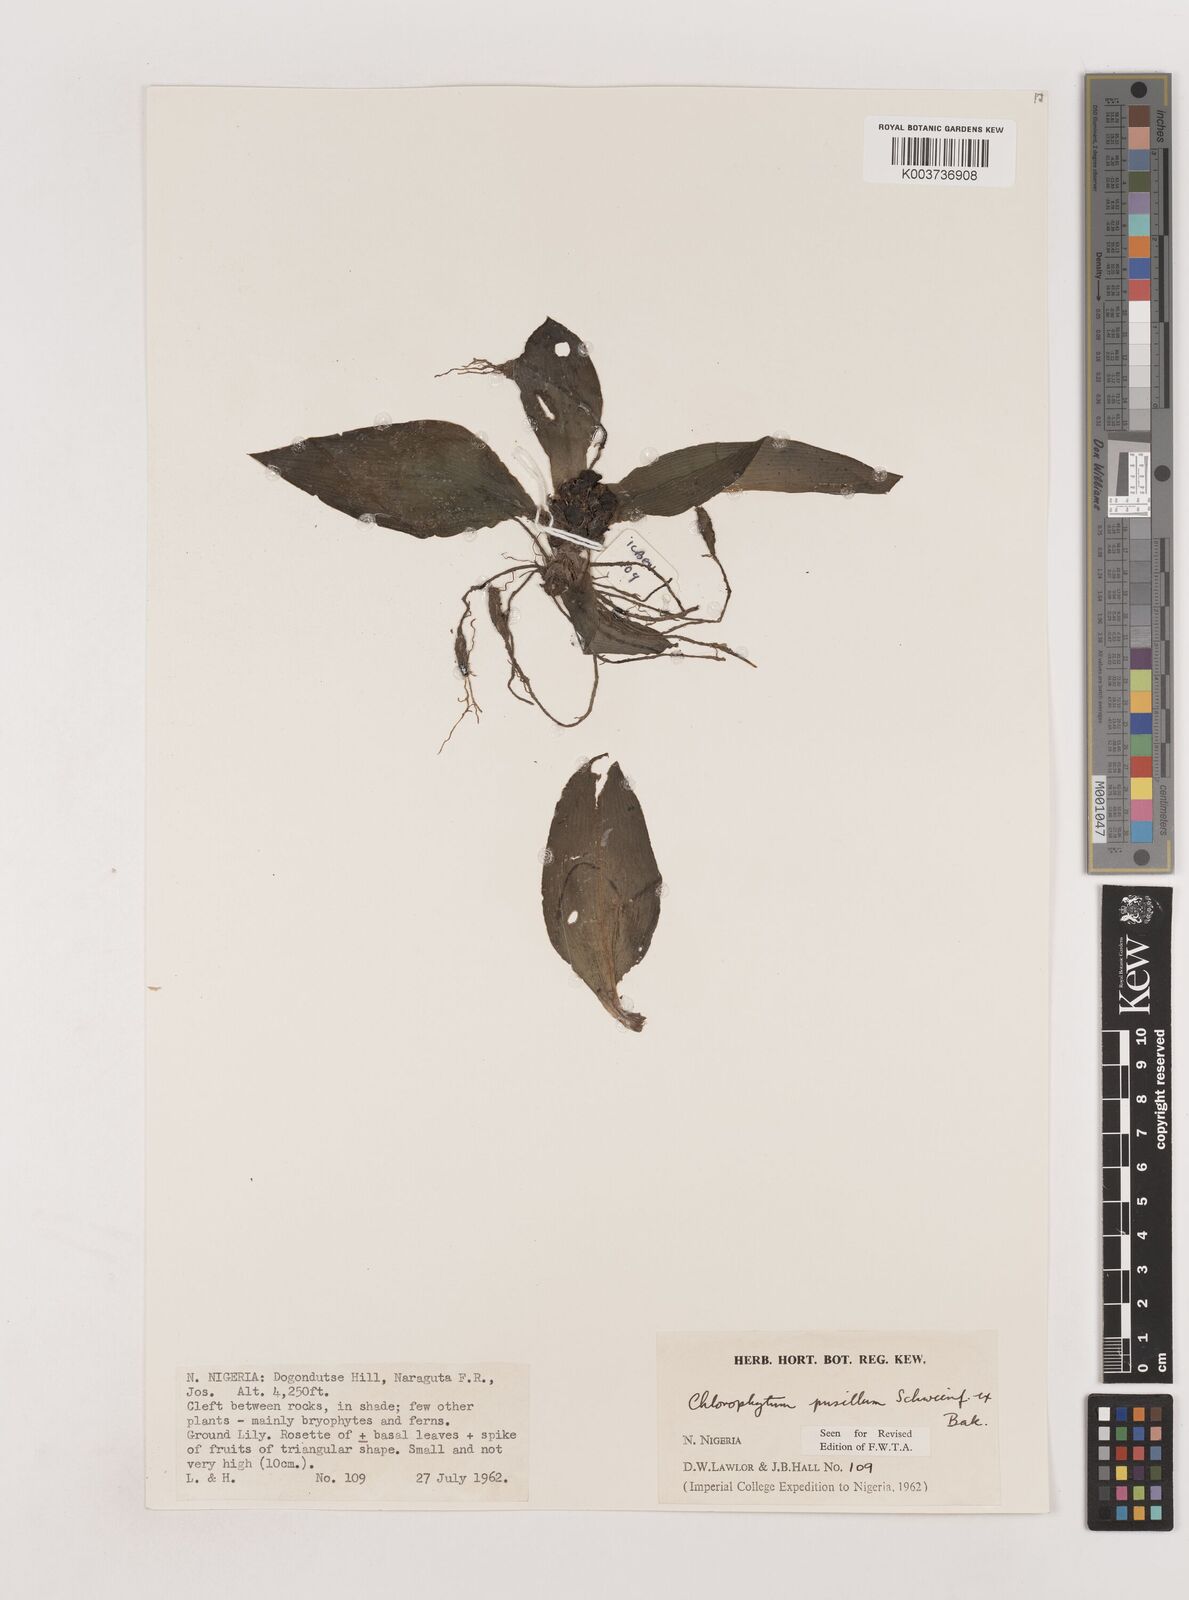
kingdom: Plantae
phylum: Tracheophyta
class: Liliopsida
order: Asparagales
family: Asparagaceae
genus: Chlorophytum
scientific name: Chlorophytum pusillum
